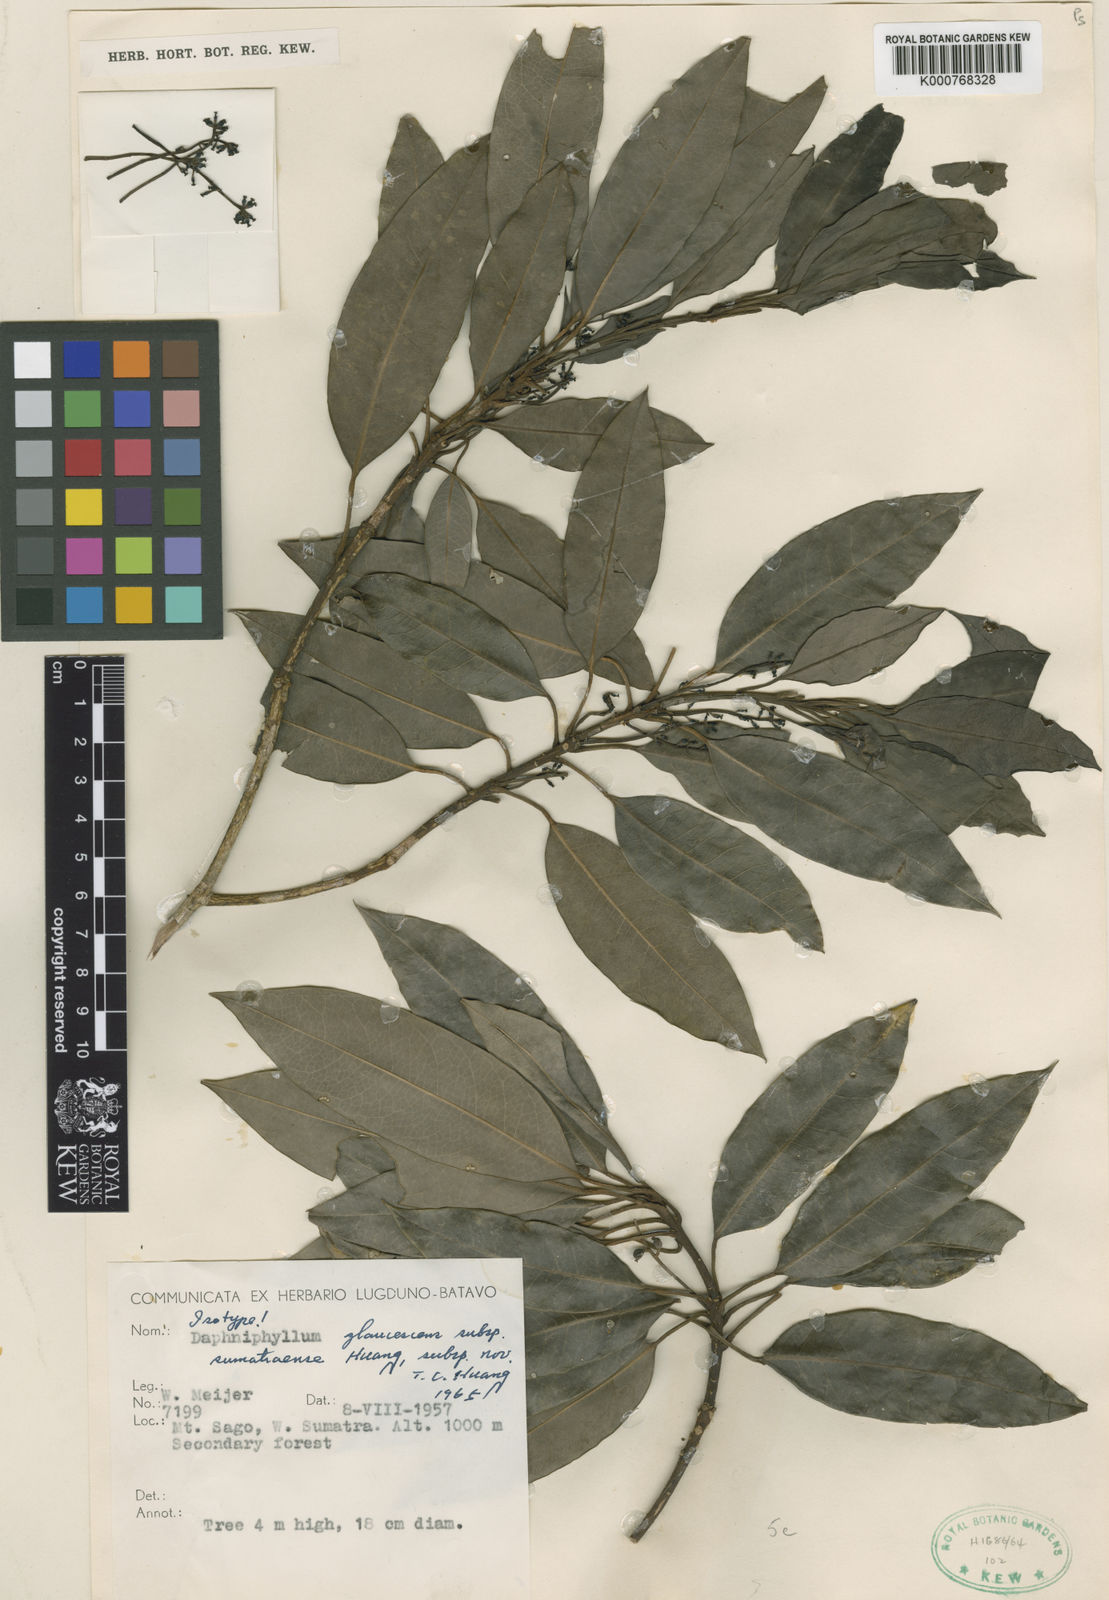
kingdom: Plantae
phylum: Tracheophyta
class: Magnoliopsida
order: Saxifragales
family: Daphniphyllaceae
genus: Daphniphyllum
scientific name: Daphniphyllum sumatraense
